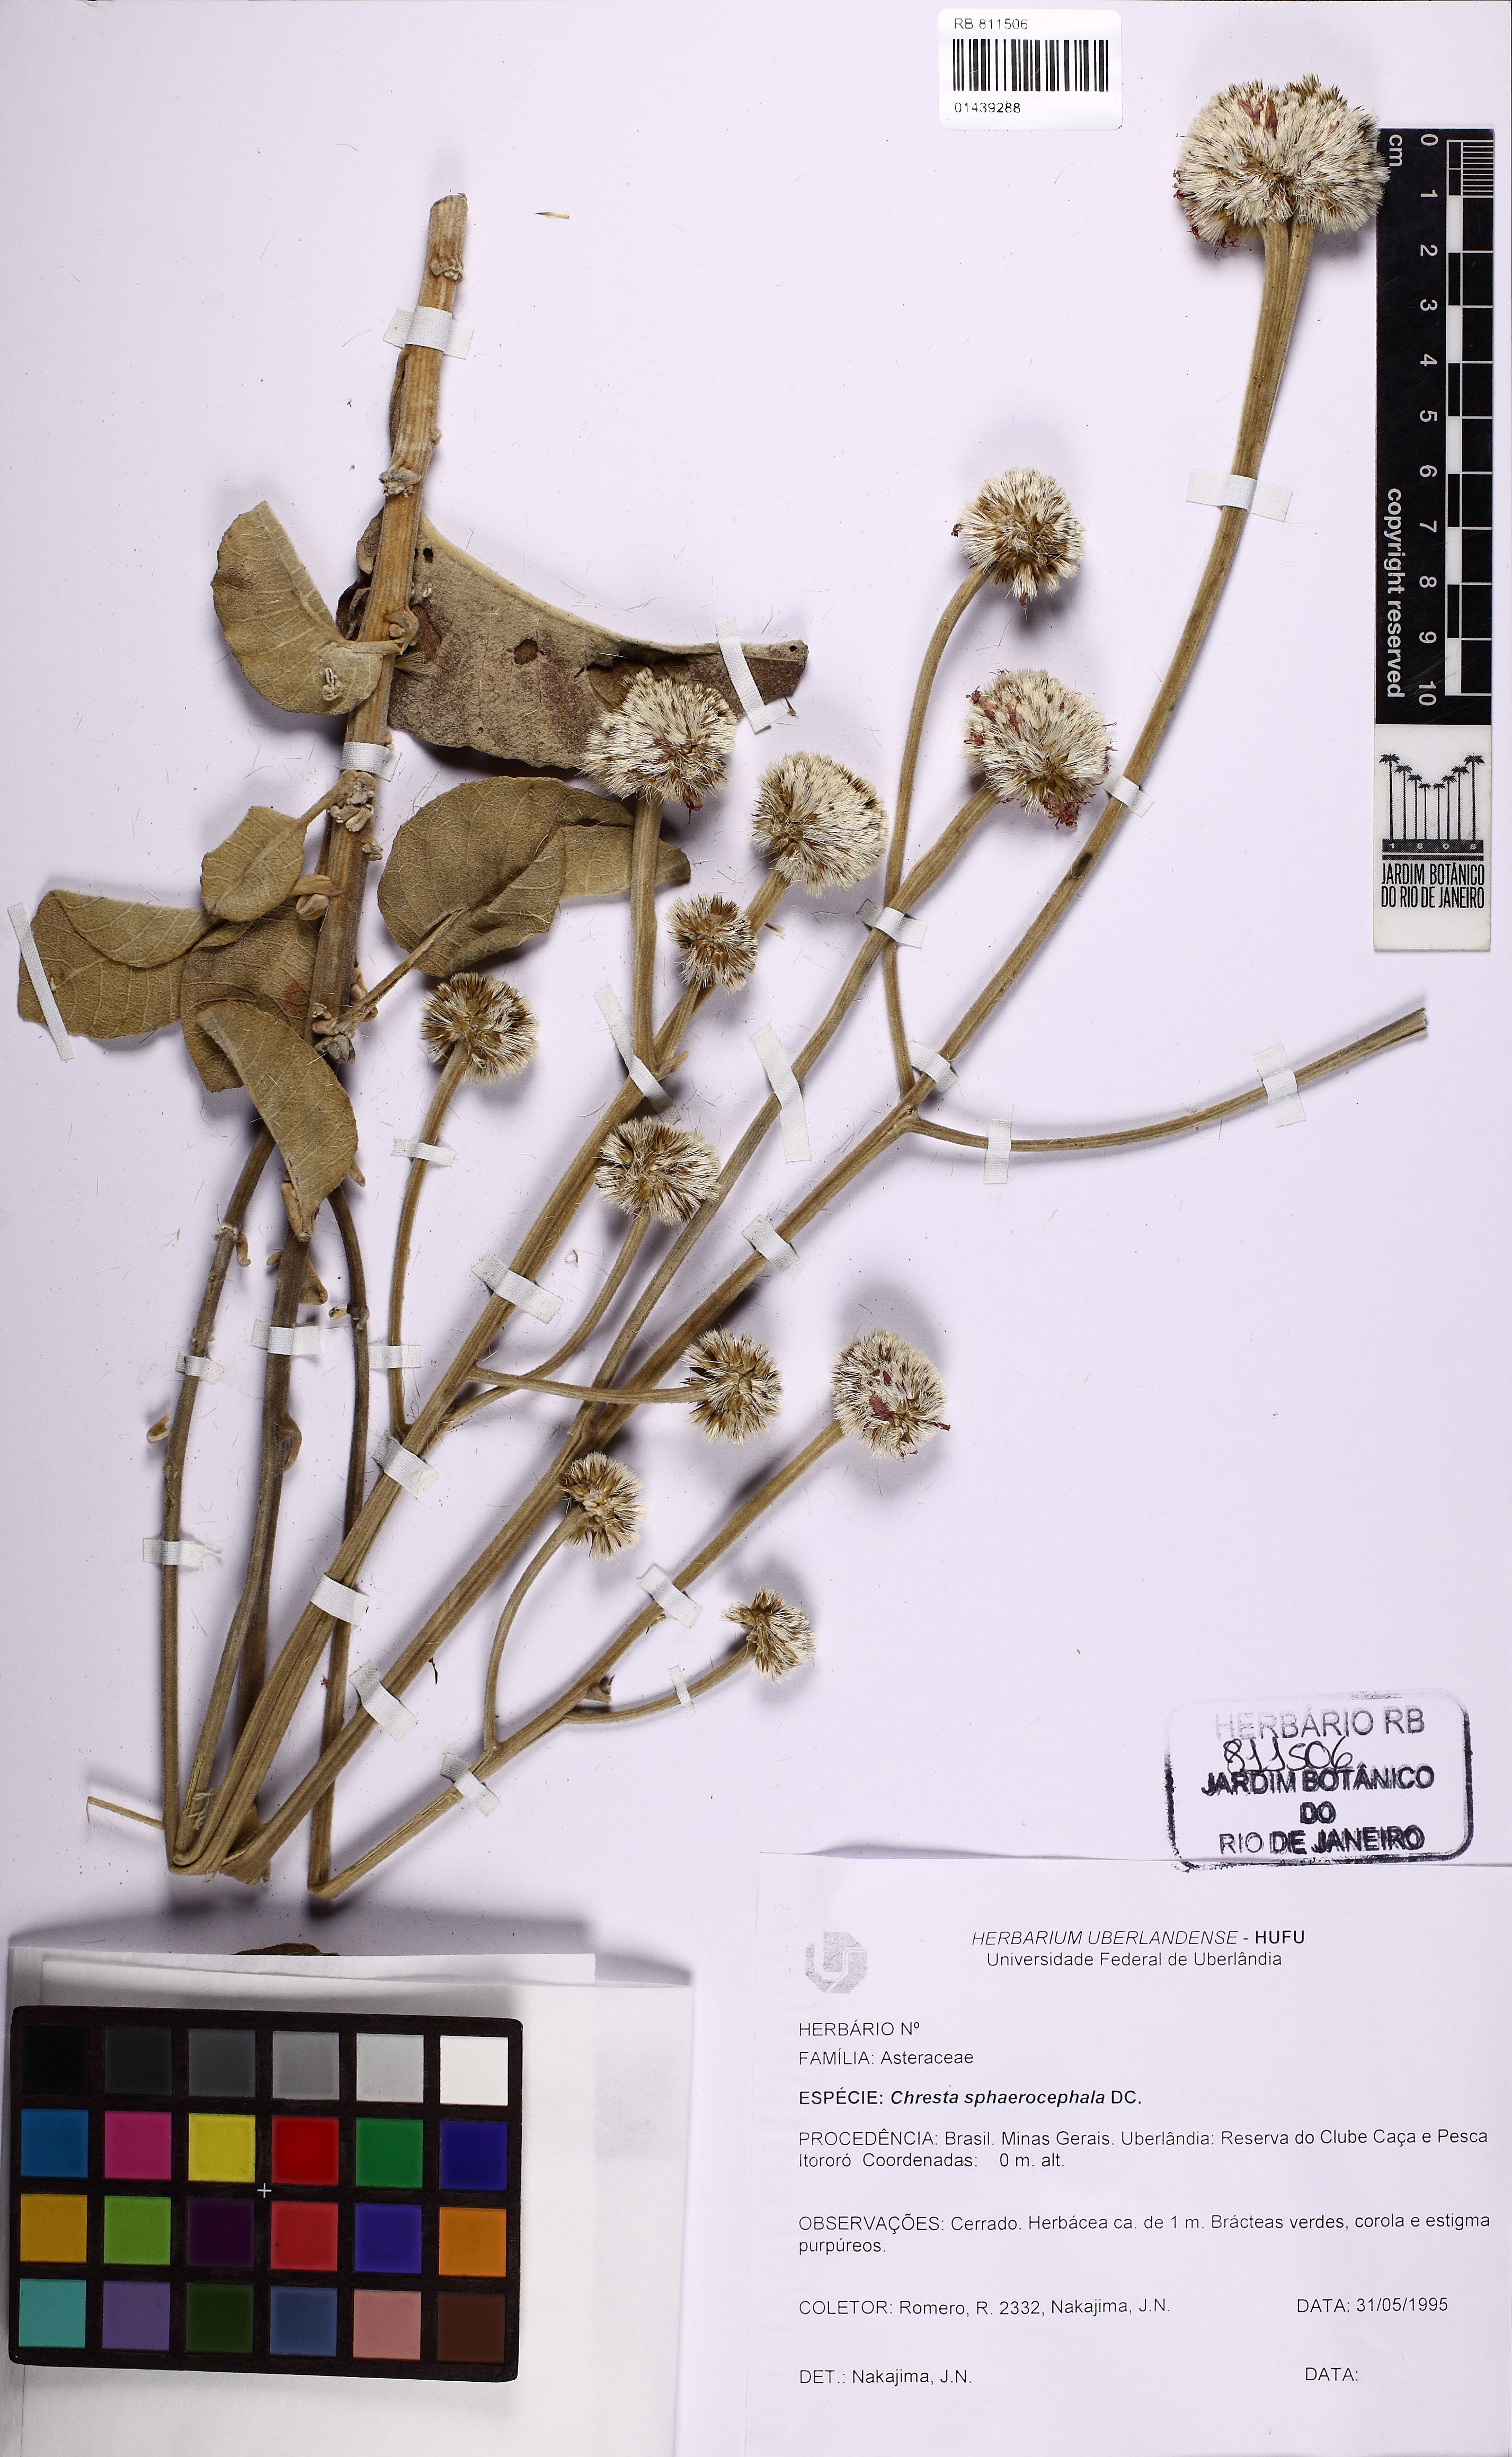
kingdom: Plantae
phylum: Tracheophyta
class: Magnoliopsida
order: Asterales
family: Asteraceae
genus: Chresta
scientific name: Chresta sphaerocephala
